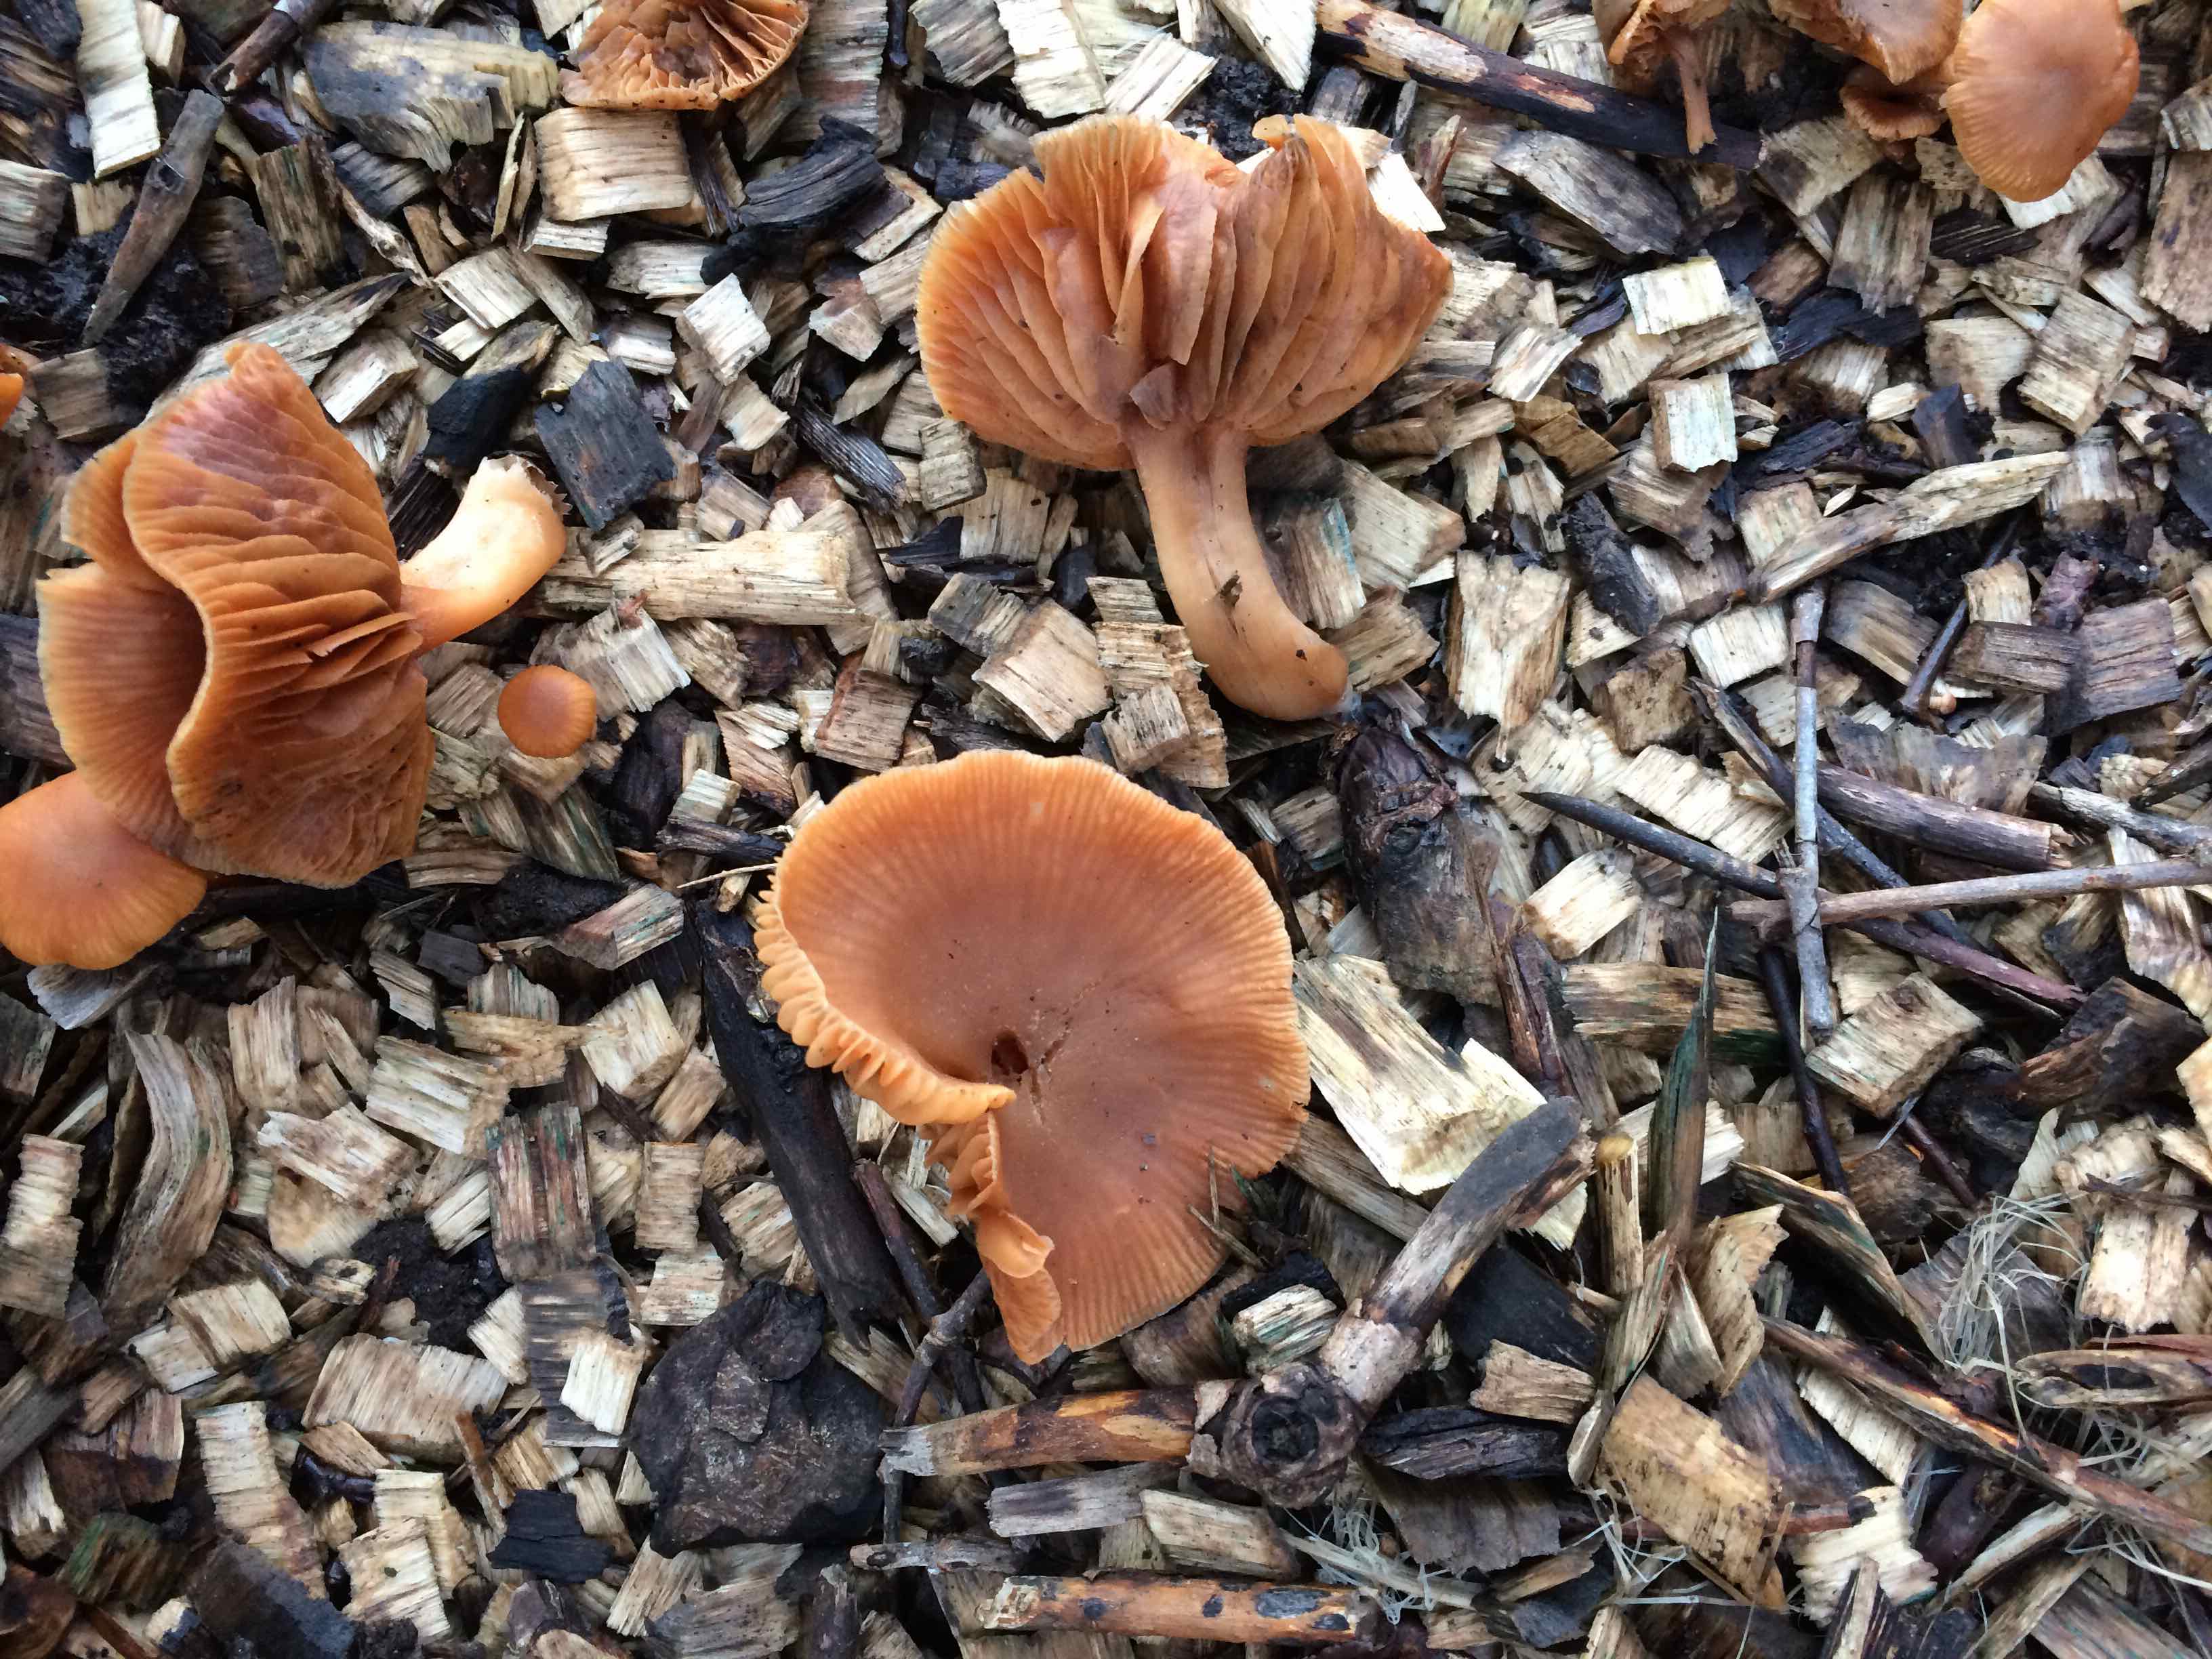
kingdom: Fungi
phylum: Basidiomycota
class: Agaricomycetes
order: Agaricales
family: Tubariaceae
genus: Tubaria
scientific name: Tubaria furfuracea
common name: kliddet fnughat
